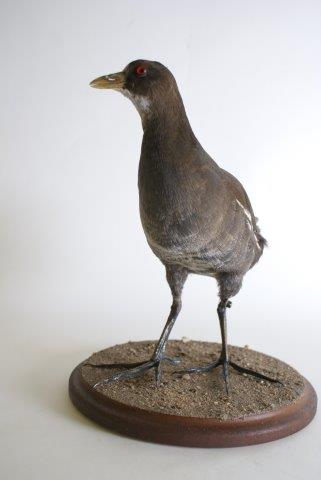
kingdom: Animalia
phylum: Chordata
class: Aves
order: Gruiformes
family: Rallidae
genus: Gallinula
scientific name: Gallinula chloropus
